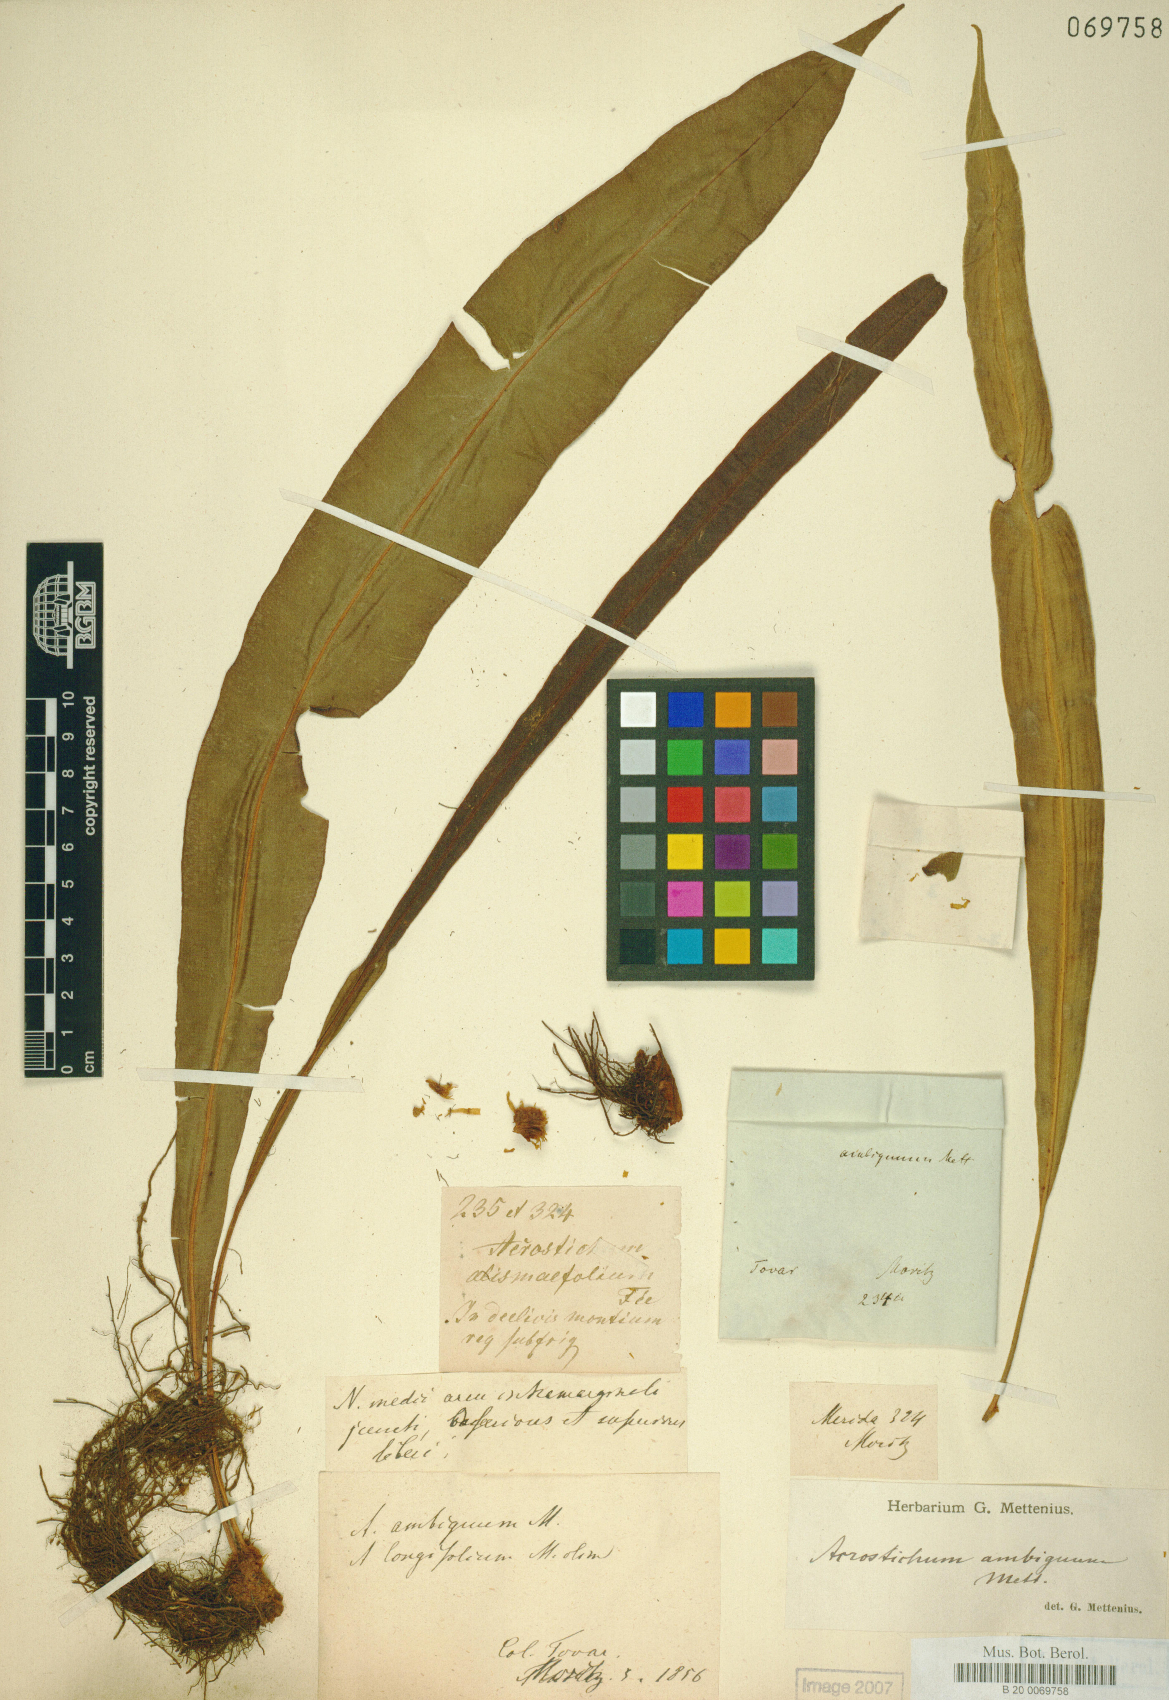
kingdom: Plantae
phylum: Tracheophyta
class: Polypodiopsida
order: Polypodiales
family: Dryopteridaceae
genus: Elaphoglossum
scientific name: Elaphoglossum ambiguum
